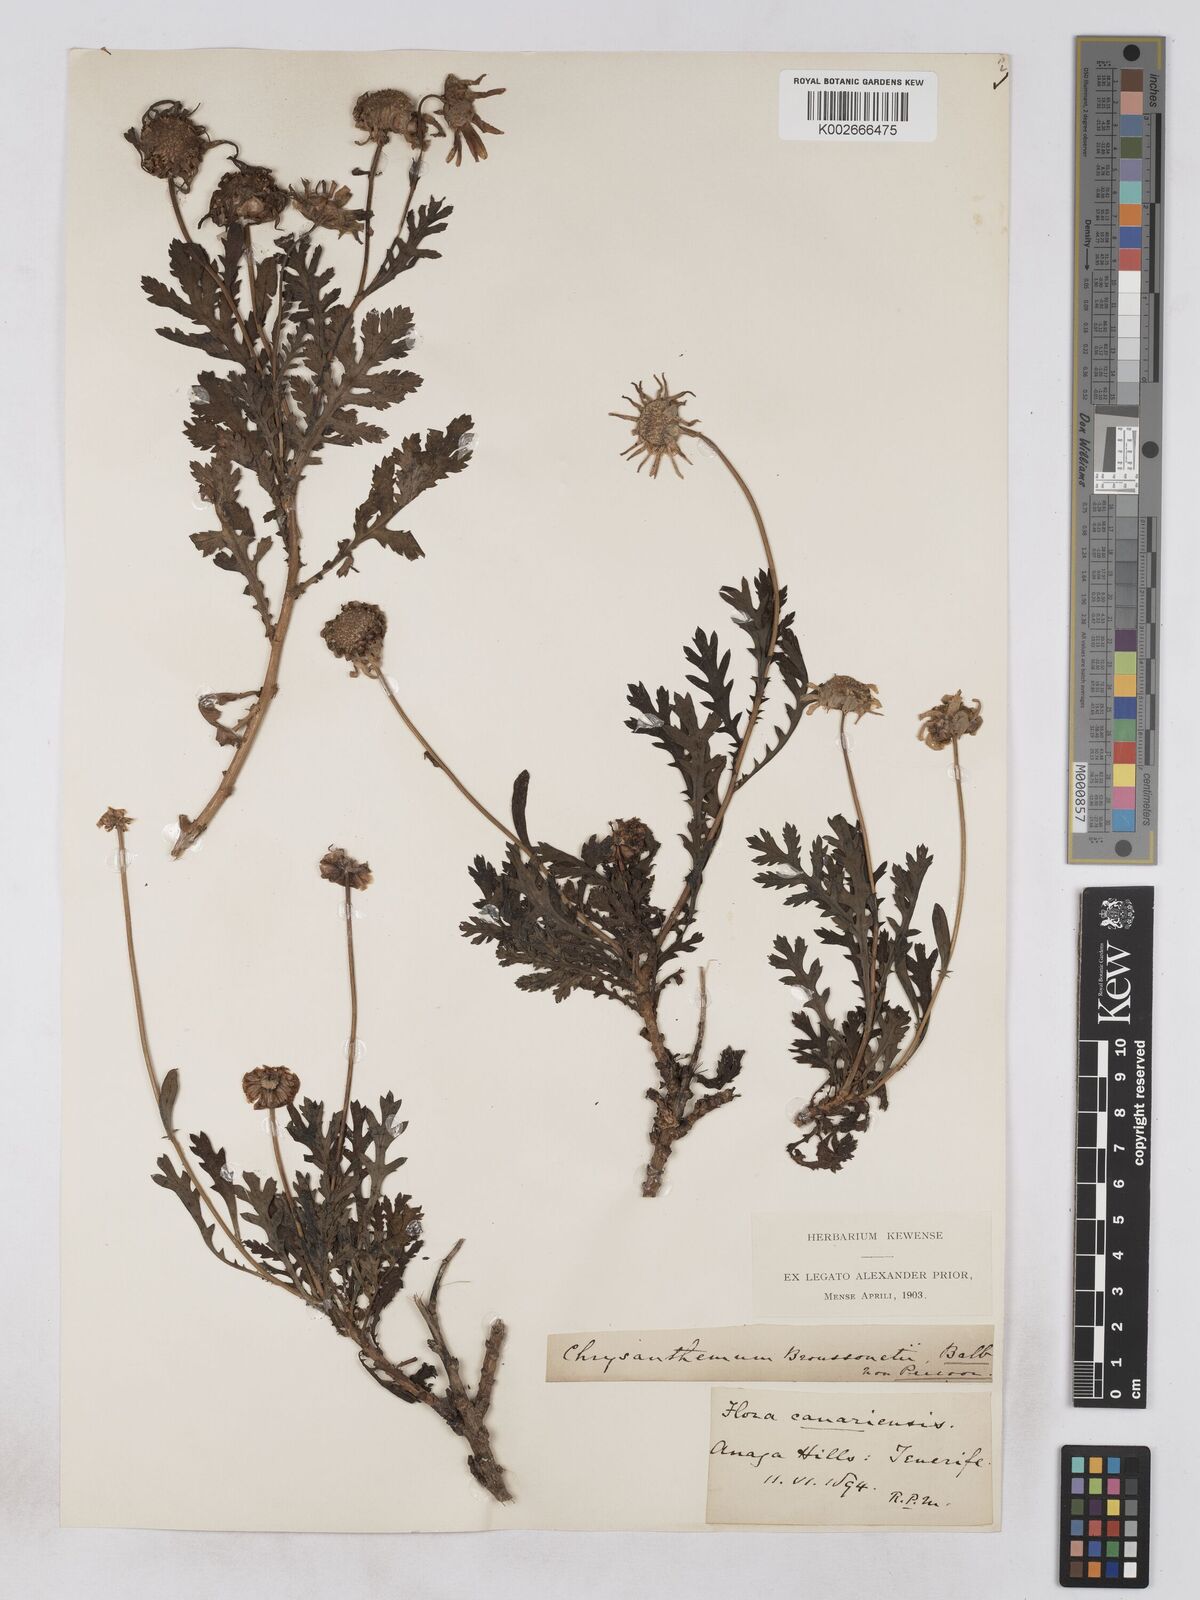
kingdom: Plantae
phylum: Tracheophyta
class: Magnoliopsida
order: Asterales
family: Asteraceae
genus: Argyranthemum
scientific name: Argyranthemum broussonetii
